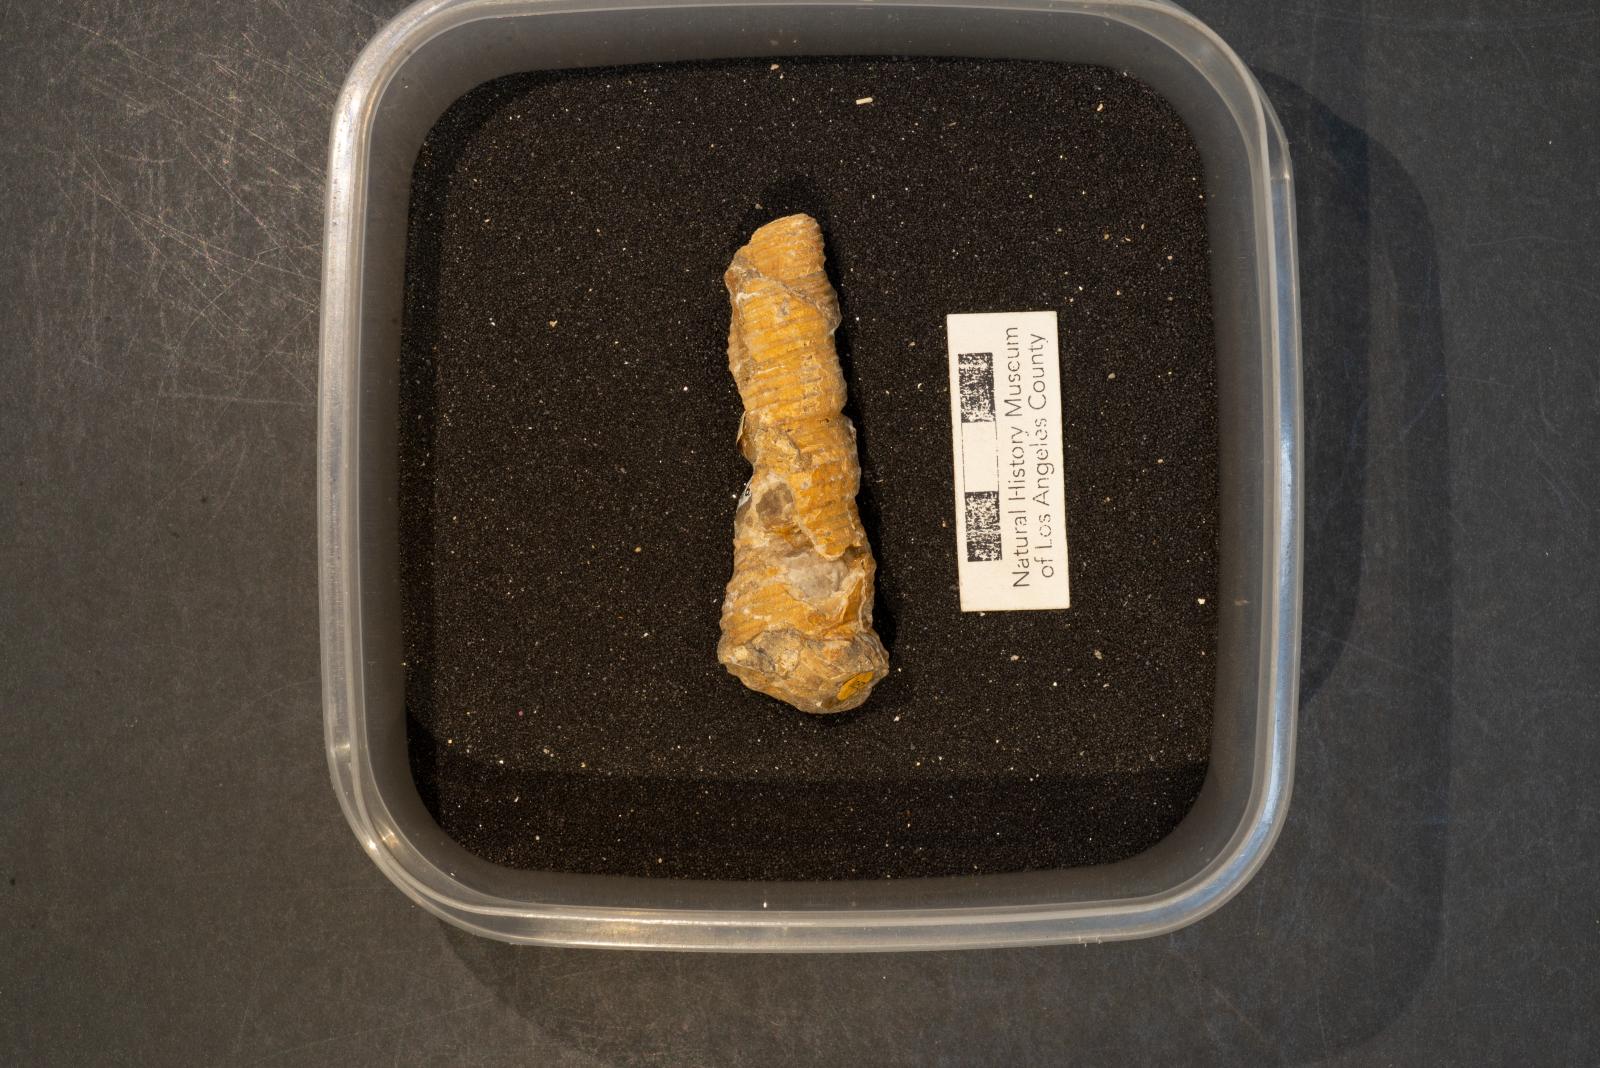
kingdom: Animalia
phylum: Mollusca
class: Gastropoda
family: Turritellidae
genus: Turritella
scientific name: Turritella chicoensis
